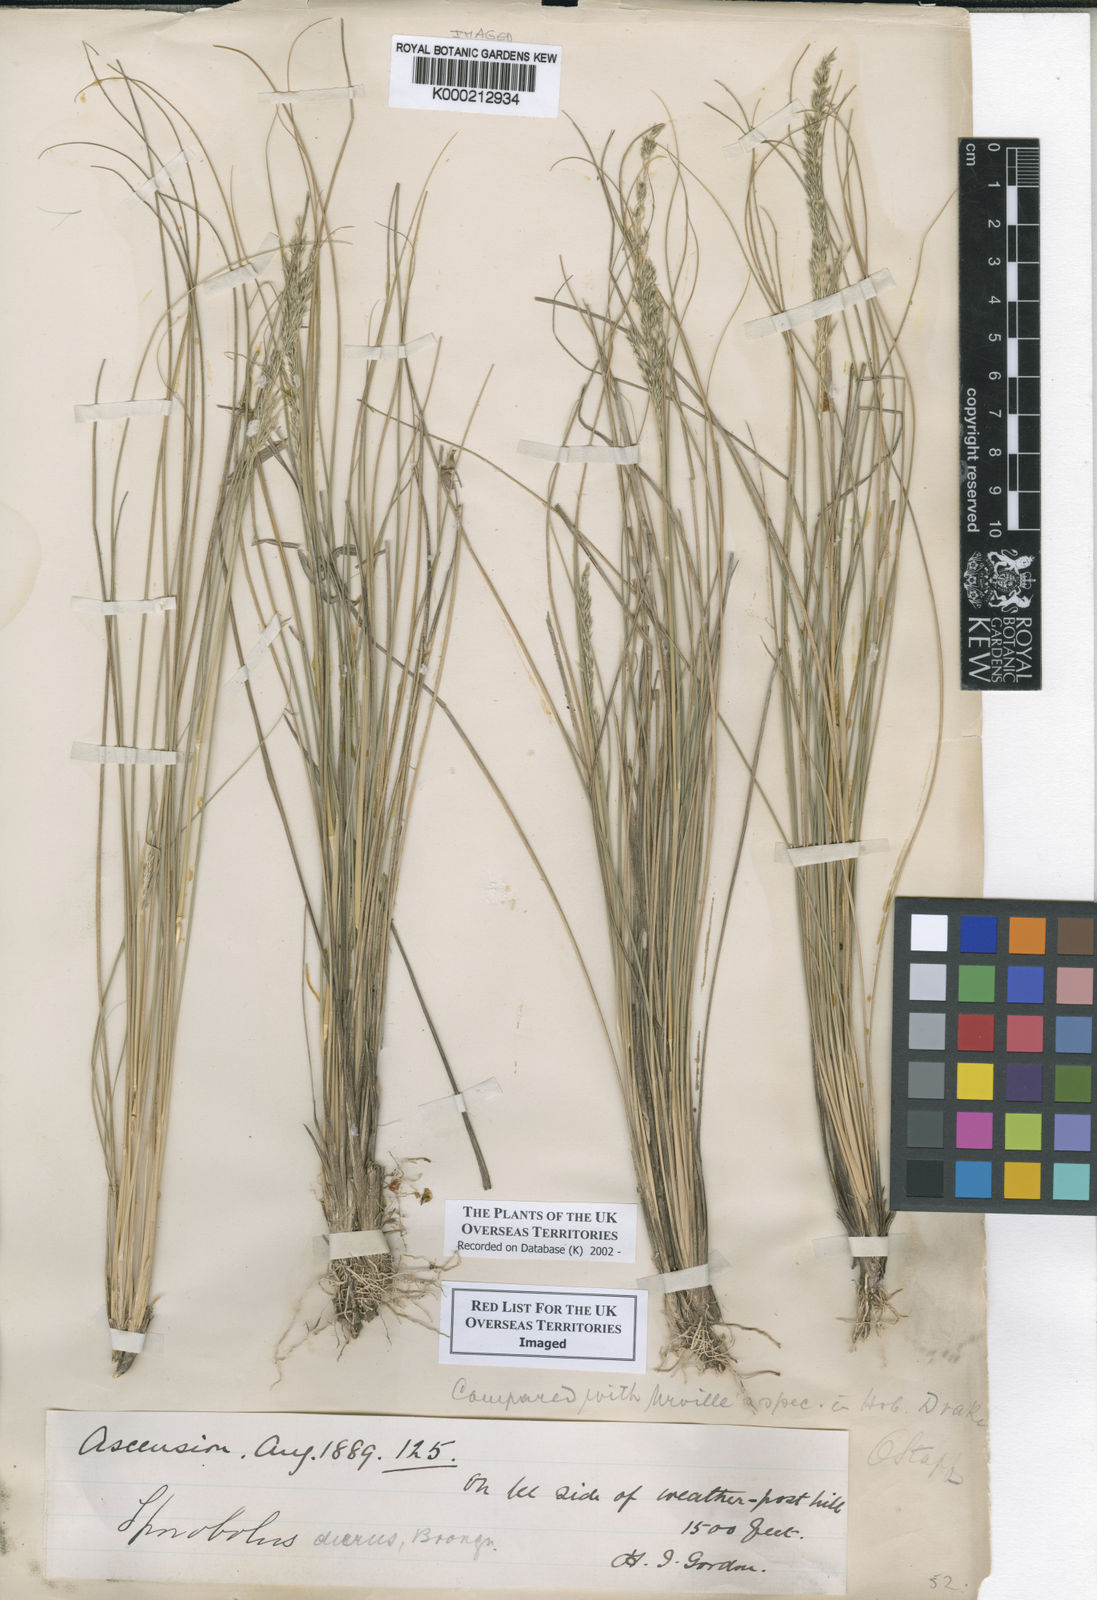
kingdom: Plantae
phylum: Tracheophyta
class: Liliopsida
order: Poales
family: Poaceae
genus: Sporobolus
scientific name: Sporobolus durus
